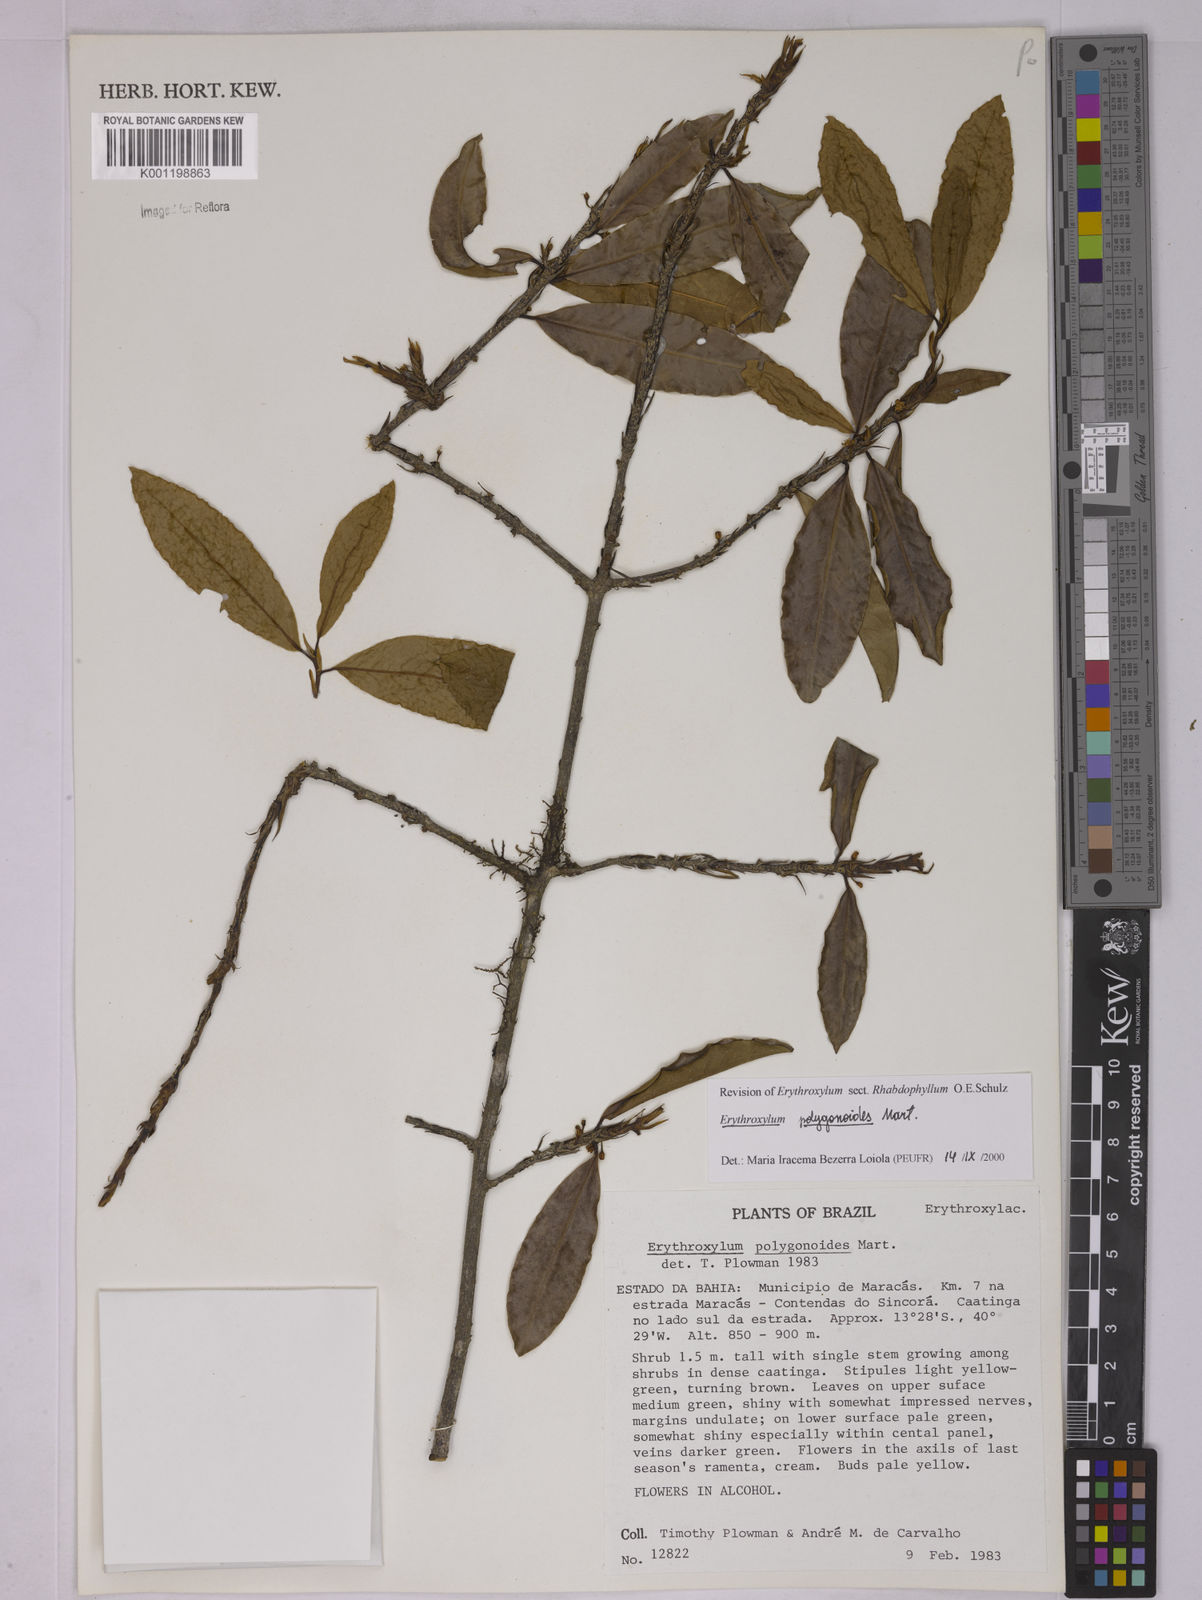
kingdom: Plantae
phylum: Tracheophyta
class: Magnoliopsida
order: Malpighiales
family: Erythroxylaceae
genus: Erythroxylum
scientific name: Erythroxylum polygonoides
